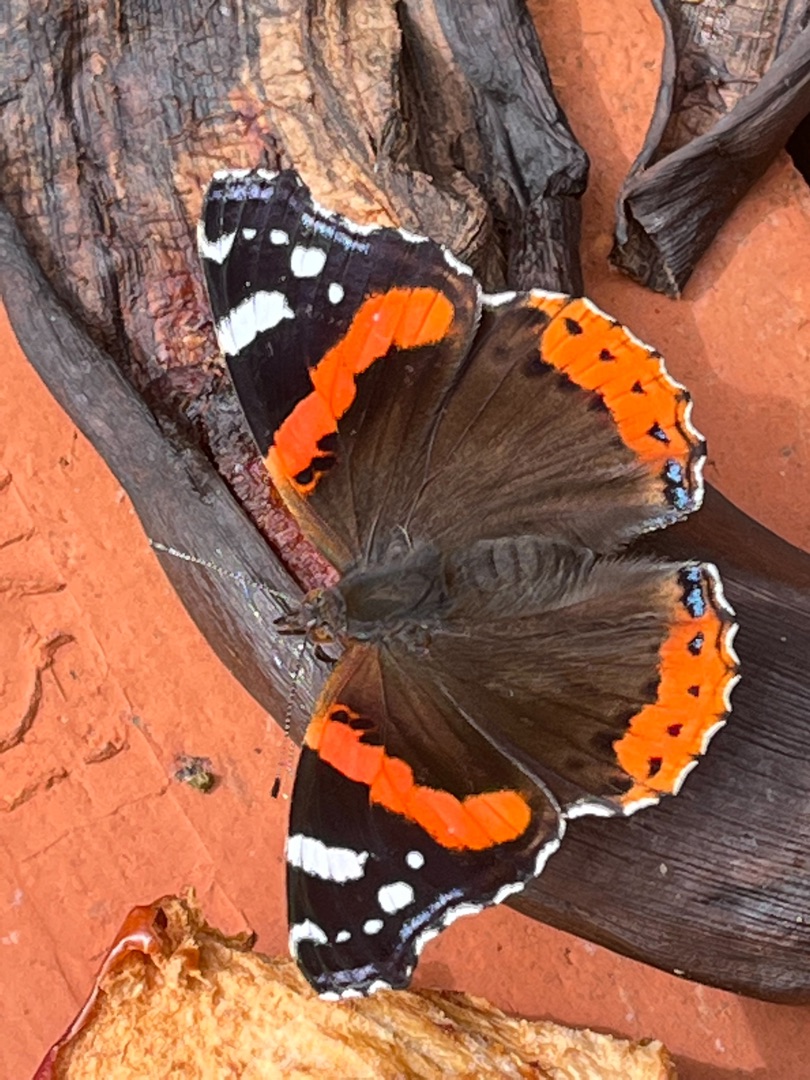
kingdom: Animalia
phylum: Arthropoda
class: Insecta
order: Lepidoptera
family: Nymphalidae
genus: Vanessa
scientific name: Vanessa atalanta
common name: Admiral
